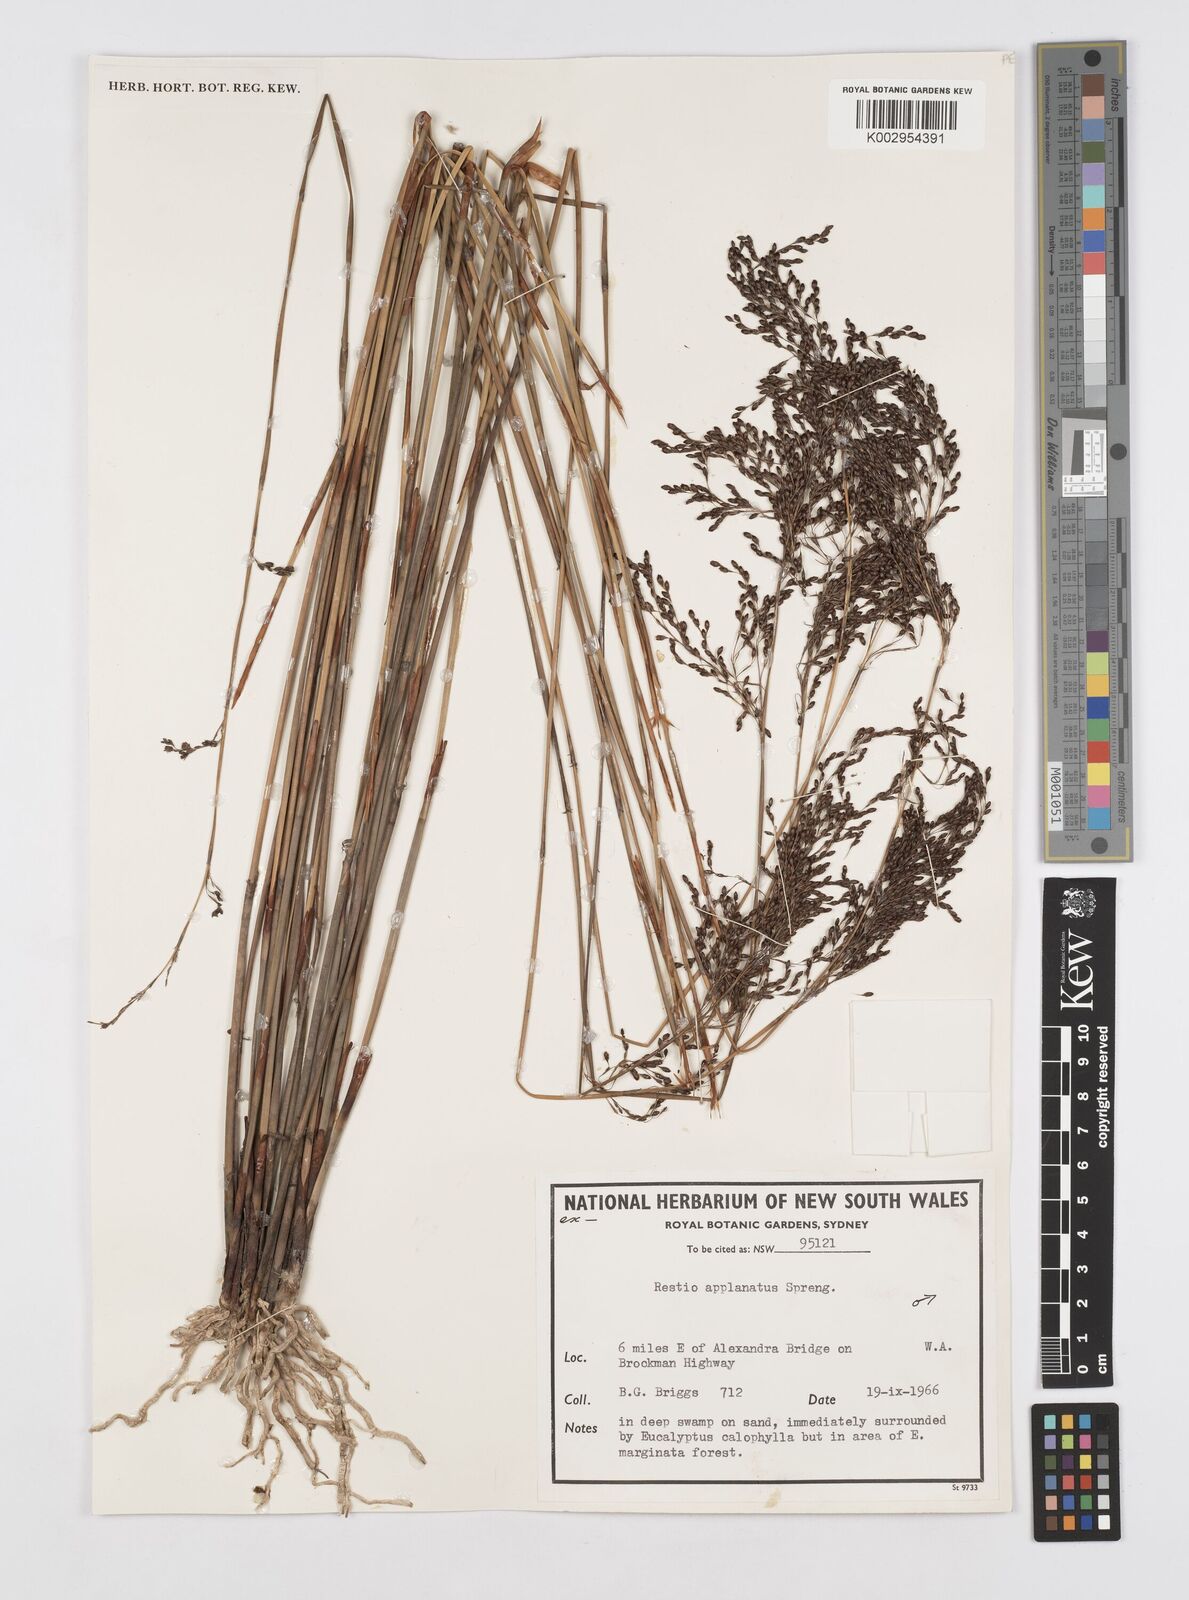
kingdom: Plantae
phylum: Tracheophyta
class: Liliopsida
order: Poales
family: Restionaceae
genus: Platychorda
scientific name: Platychorda applanata
